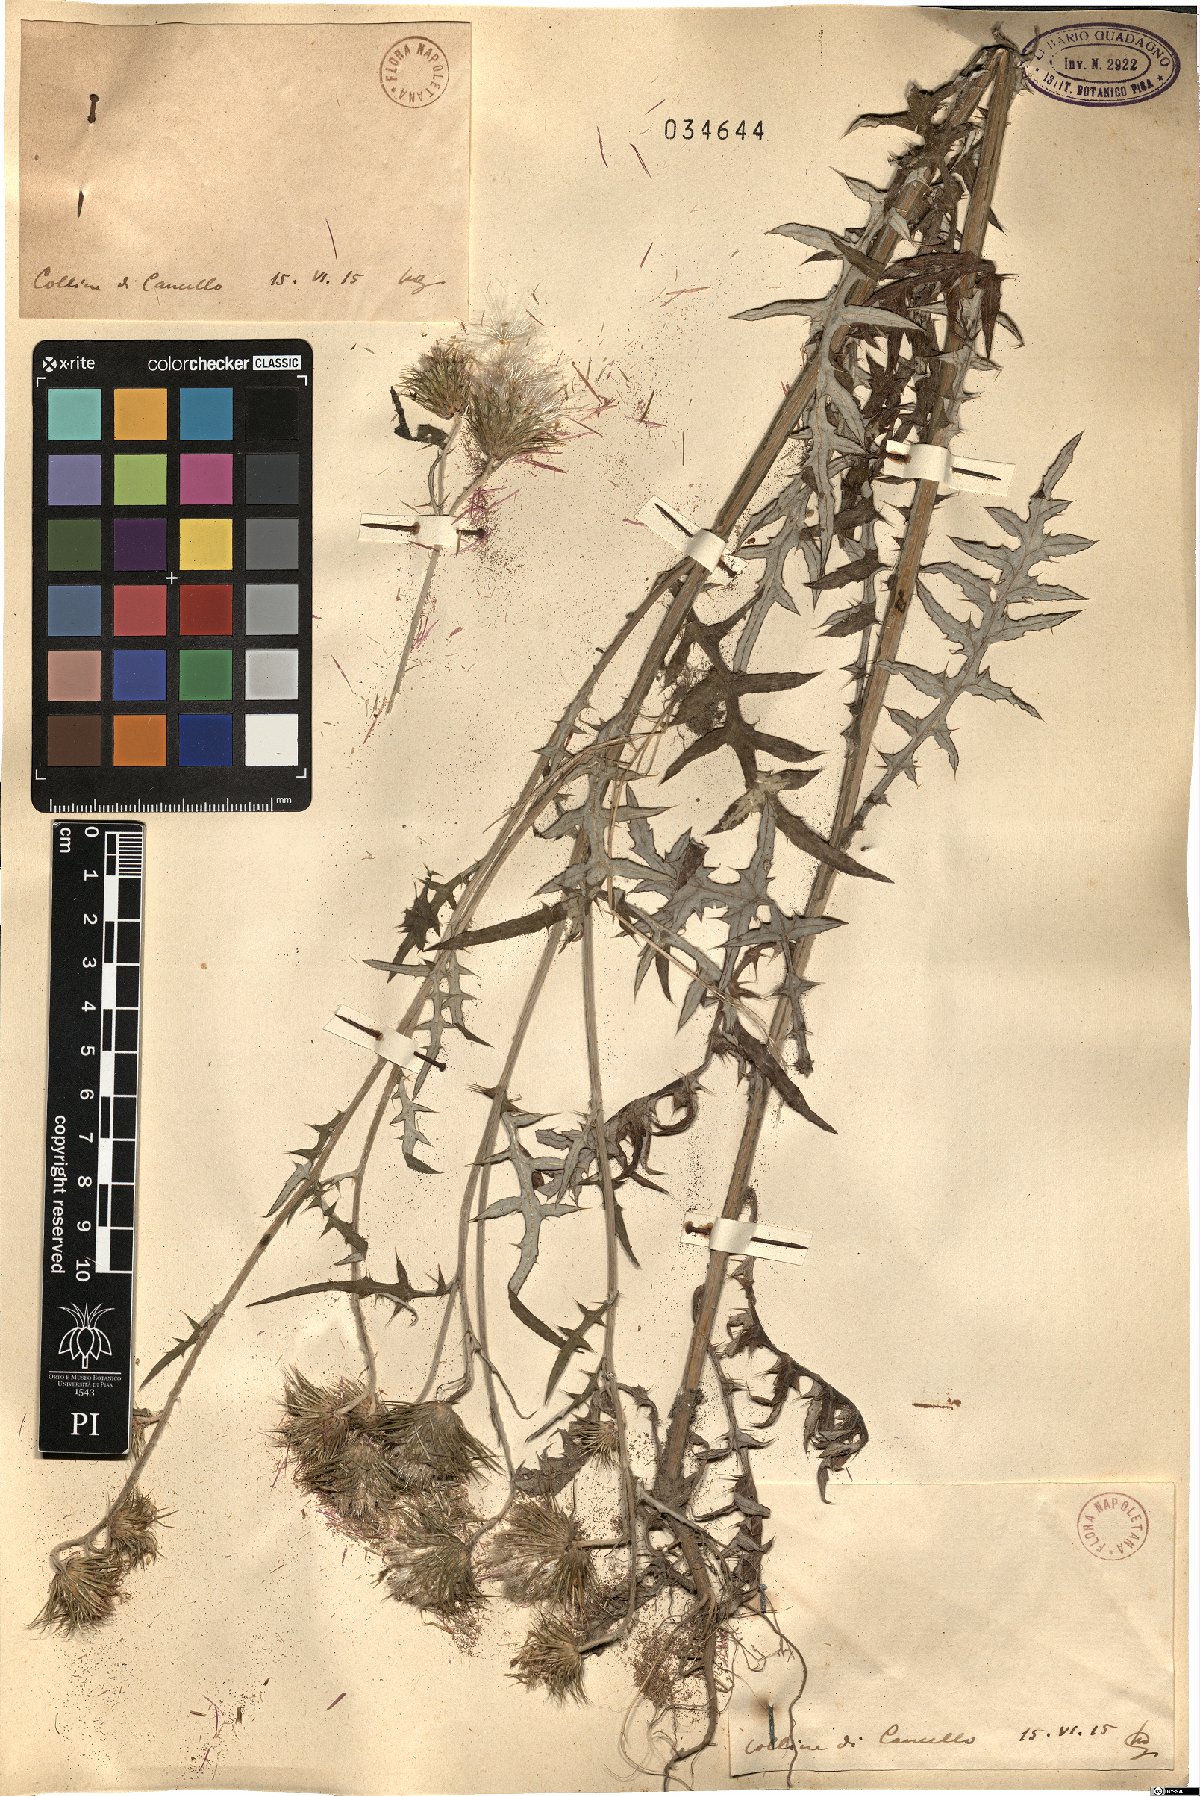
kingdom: Plantae
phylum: Tracheophyta
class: Magnoliopsida
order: Asterales
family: Asteraceae
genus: Tyrimnus
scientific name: Tyrimnus
